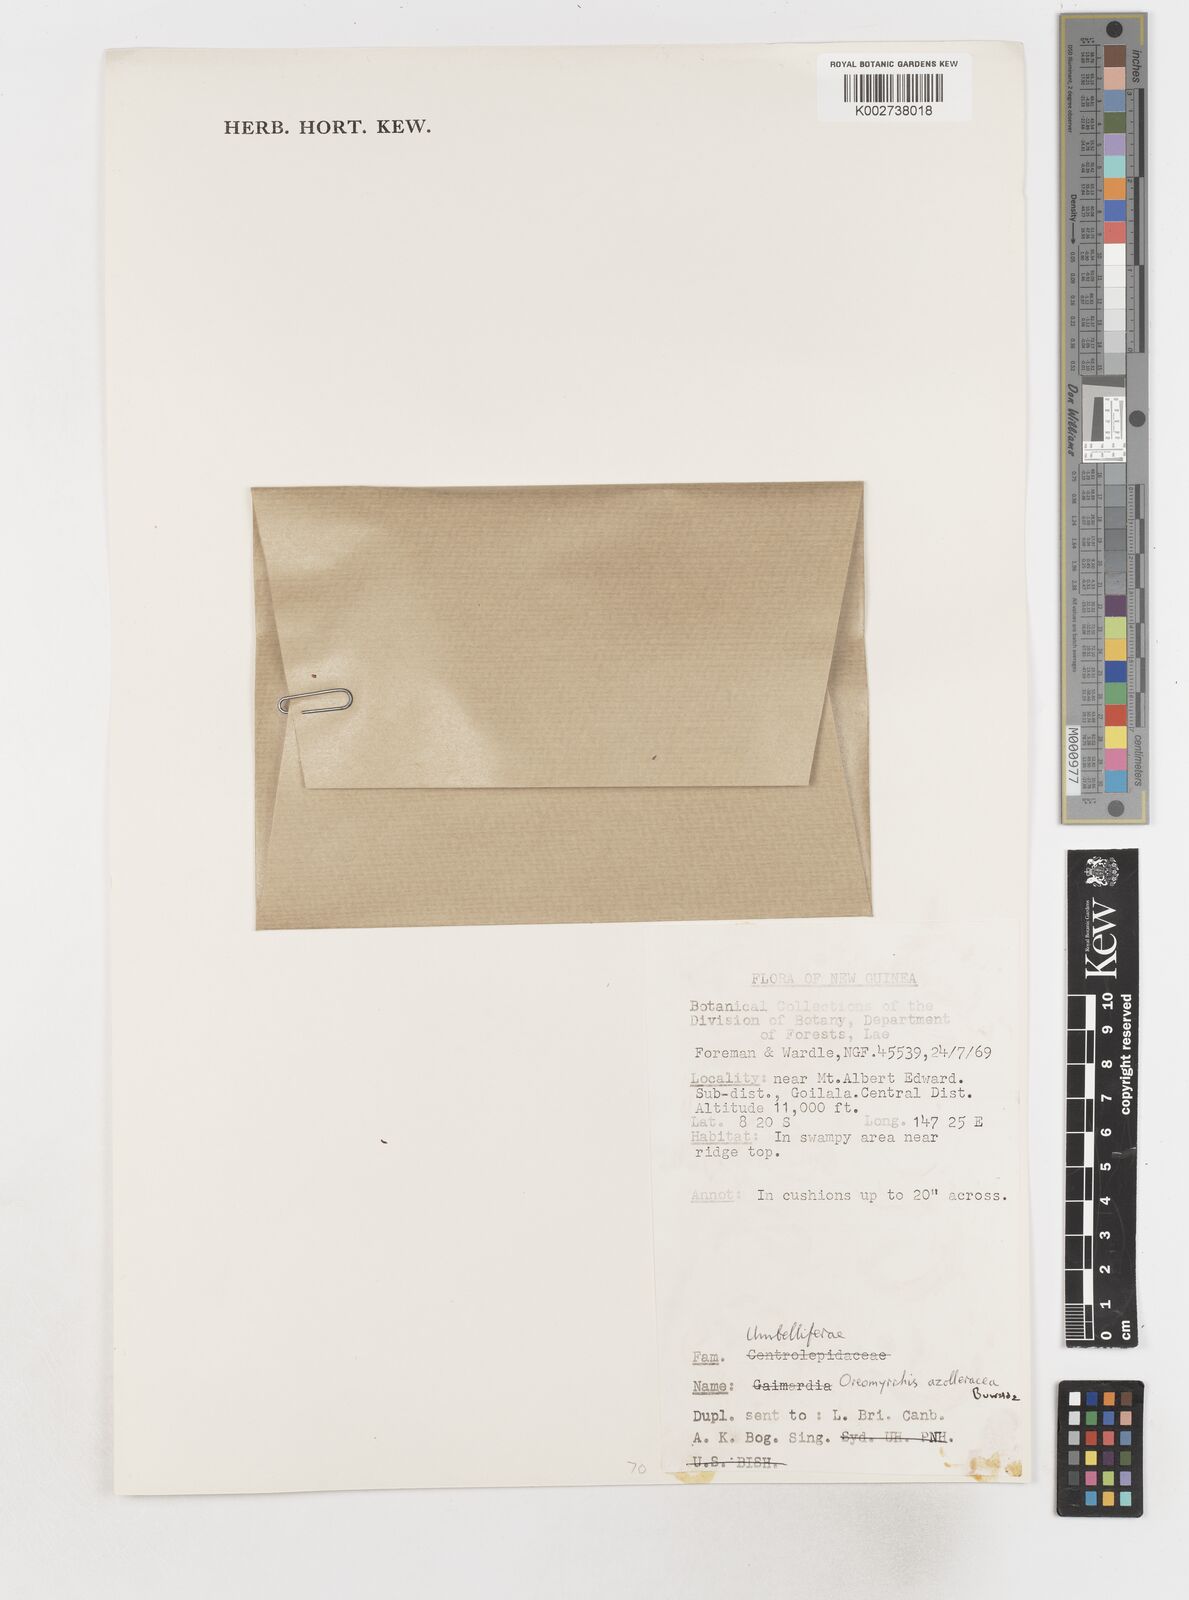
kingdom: Plantae
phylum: Tracheophyta
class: Magnoliopsida
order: Apiales
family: Apiaceae
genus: Chaerophyllum
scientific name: Chaerophyllum azorellaceum
